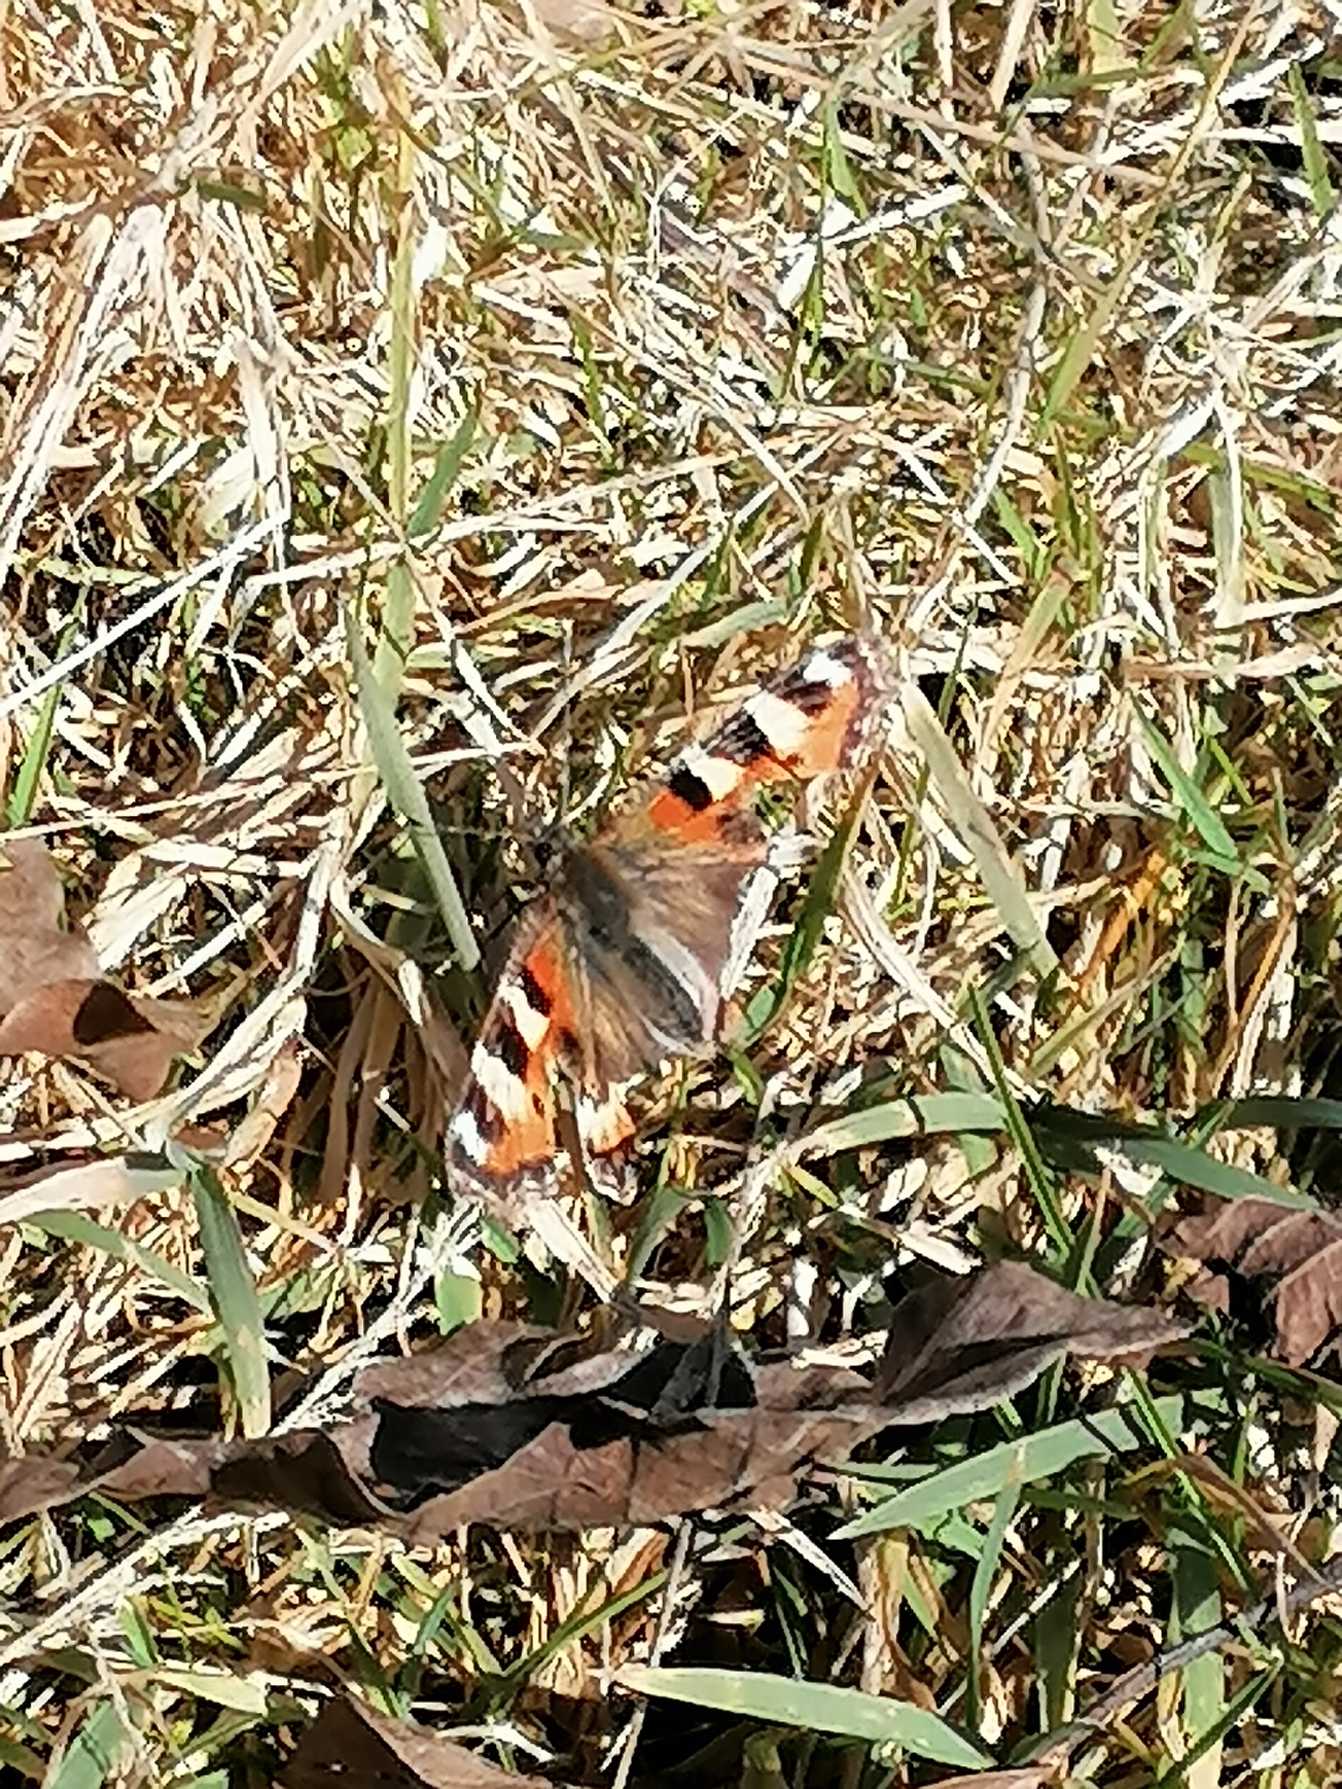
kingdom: Animalia
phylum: Arthropoda
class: Insecta
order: Lepidoptera
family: Nymphalidae
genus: Aglais
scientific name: Aglais urticae
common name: Nældens takvinge
